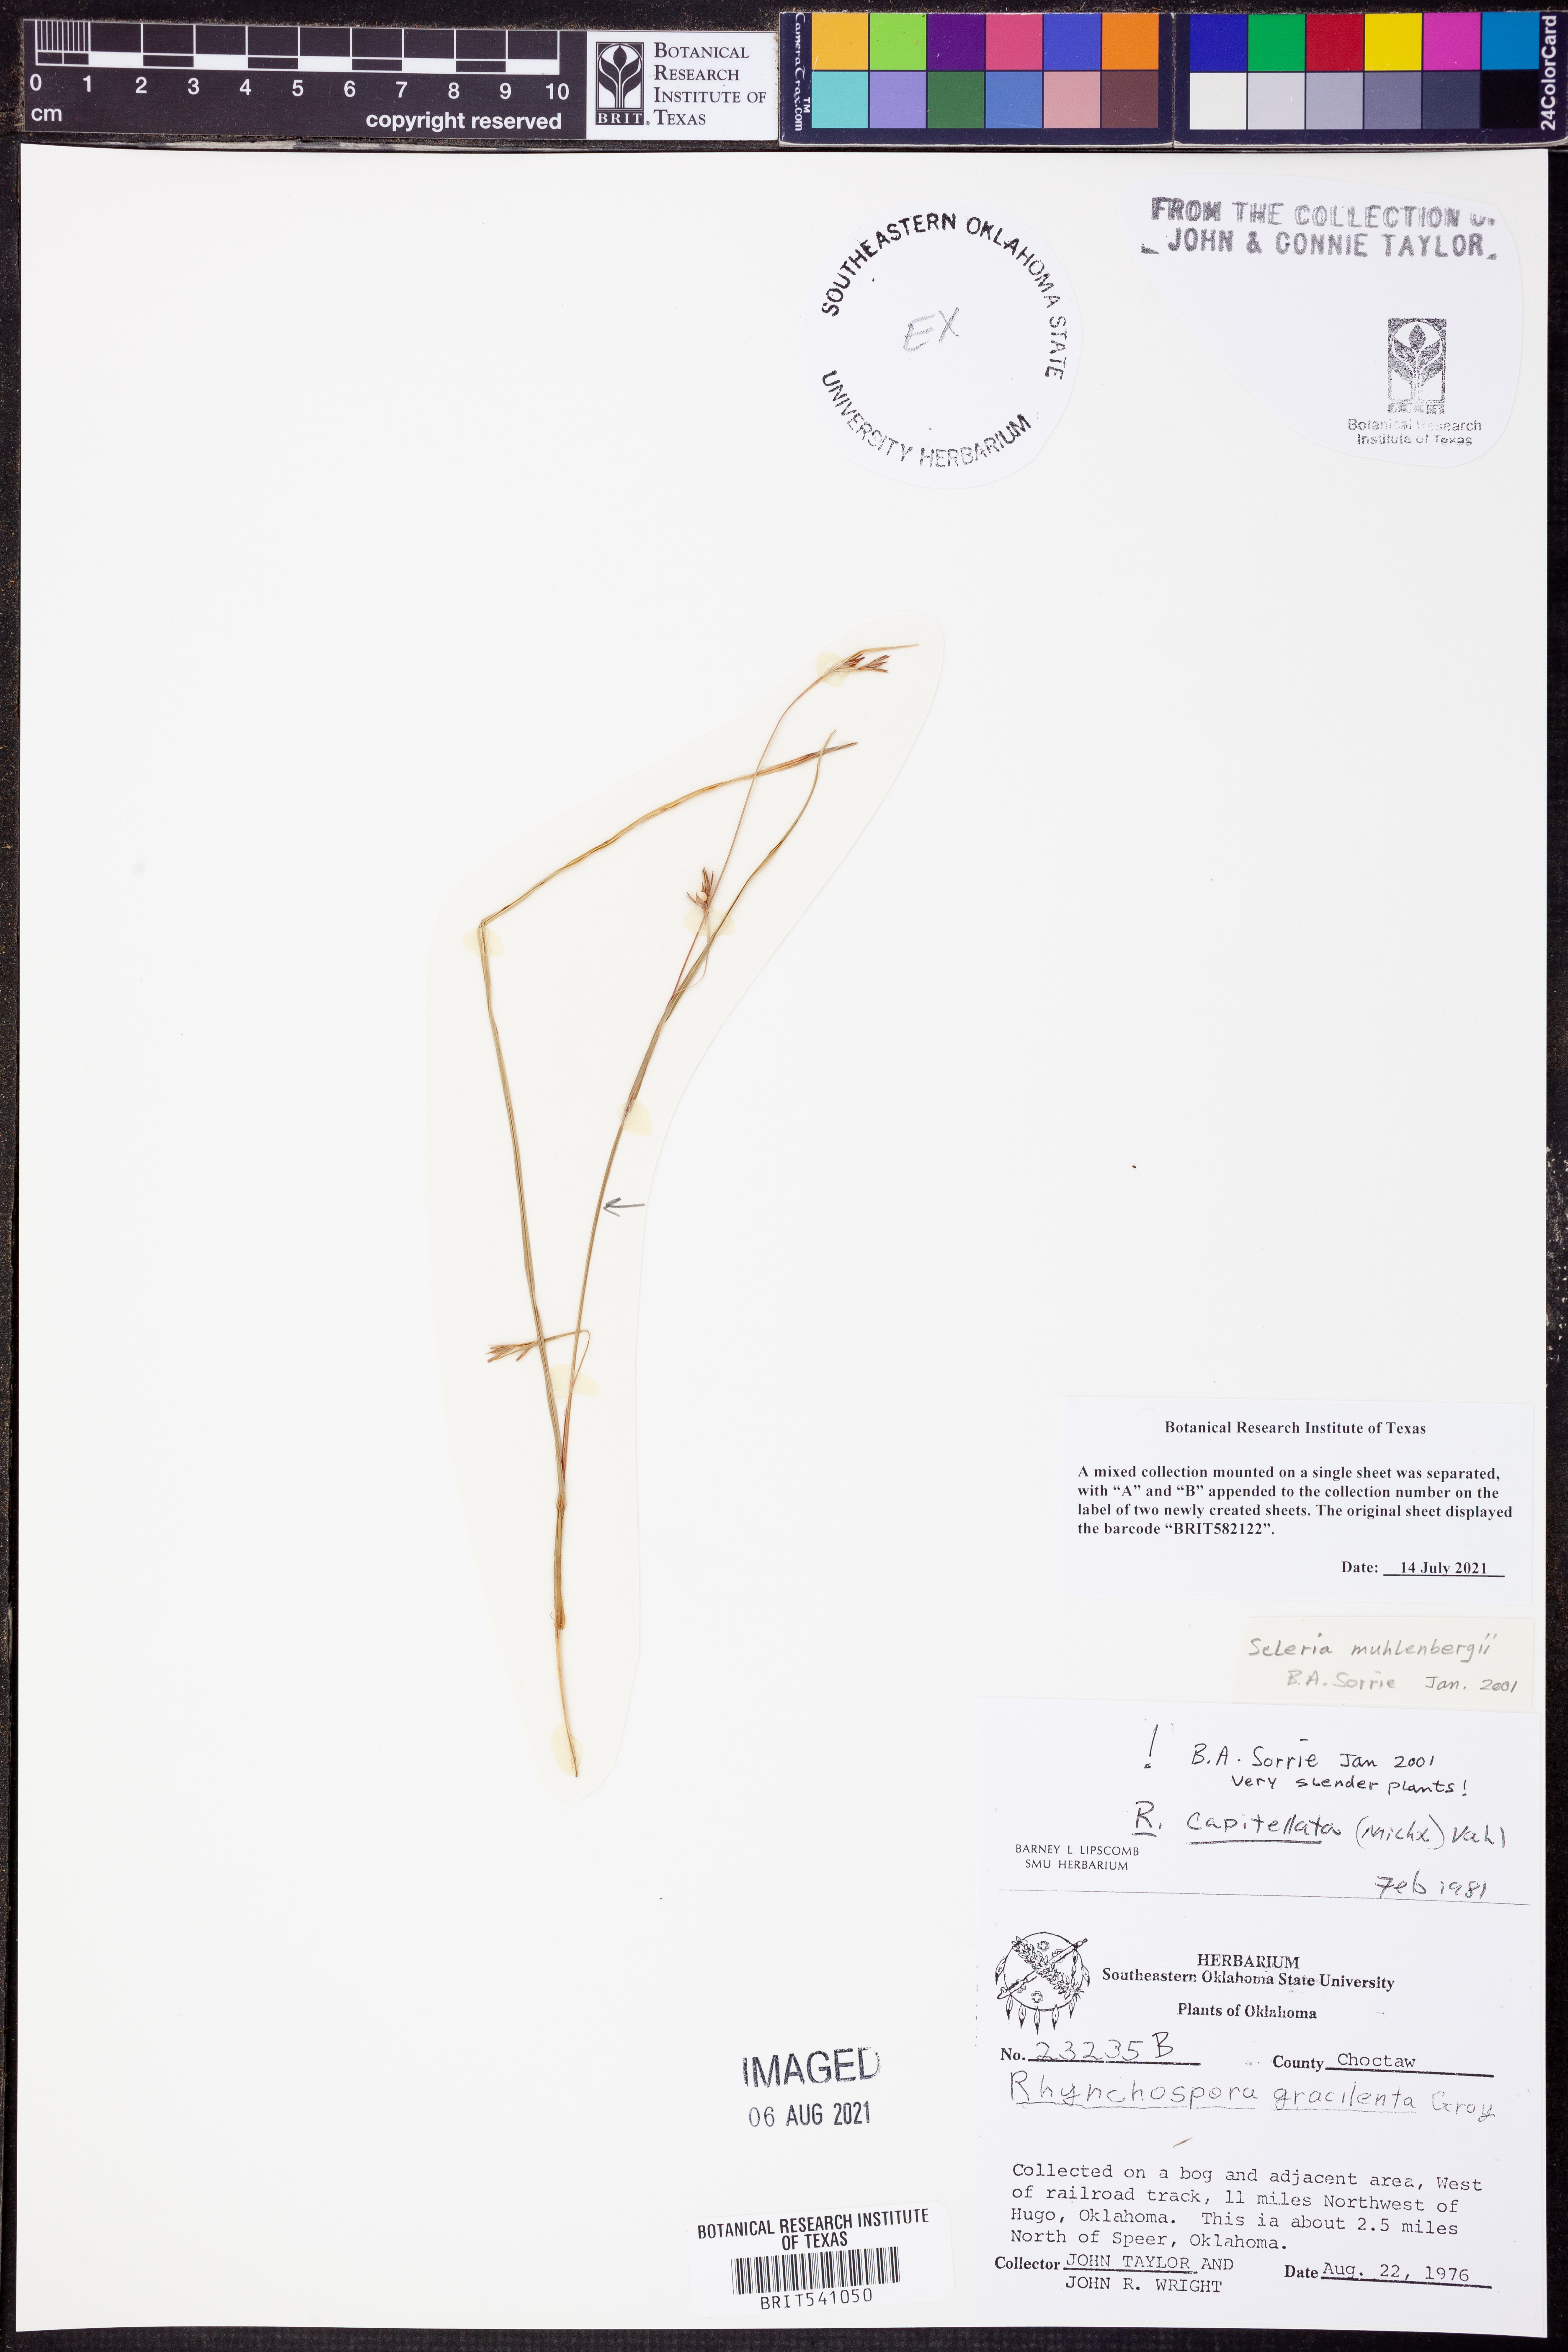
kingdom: Plantae
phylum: Tracheophyta
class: Liliopsida
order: Poales
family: Cyperaceae
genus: Rhynchospora
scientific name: Rhynchospora capitellata
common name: Brownish beaksedge
